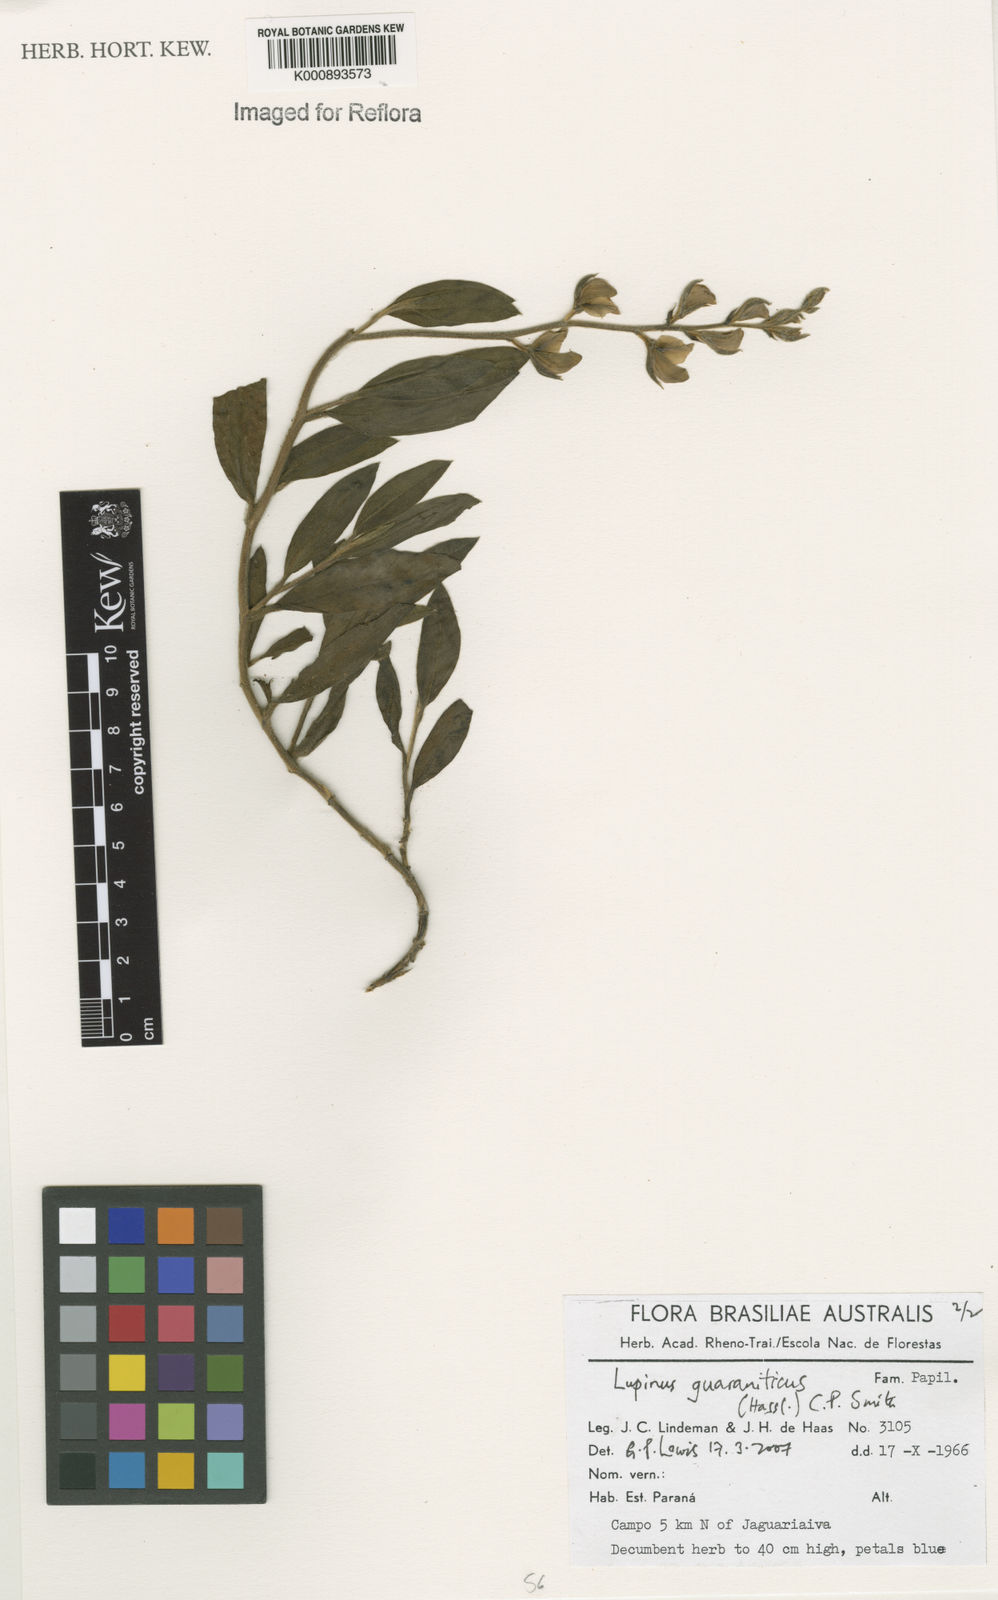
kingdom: Plantae
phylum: Tracheophyta
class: Magnoliopsida
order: Fabales
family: Fabaceae
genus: Lupinus
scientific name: Lupinus guaraniticus
